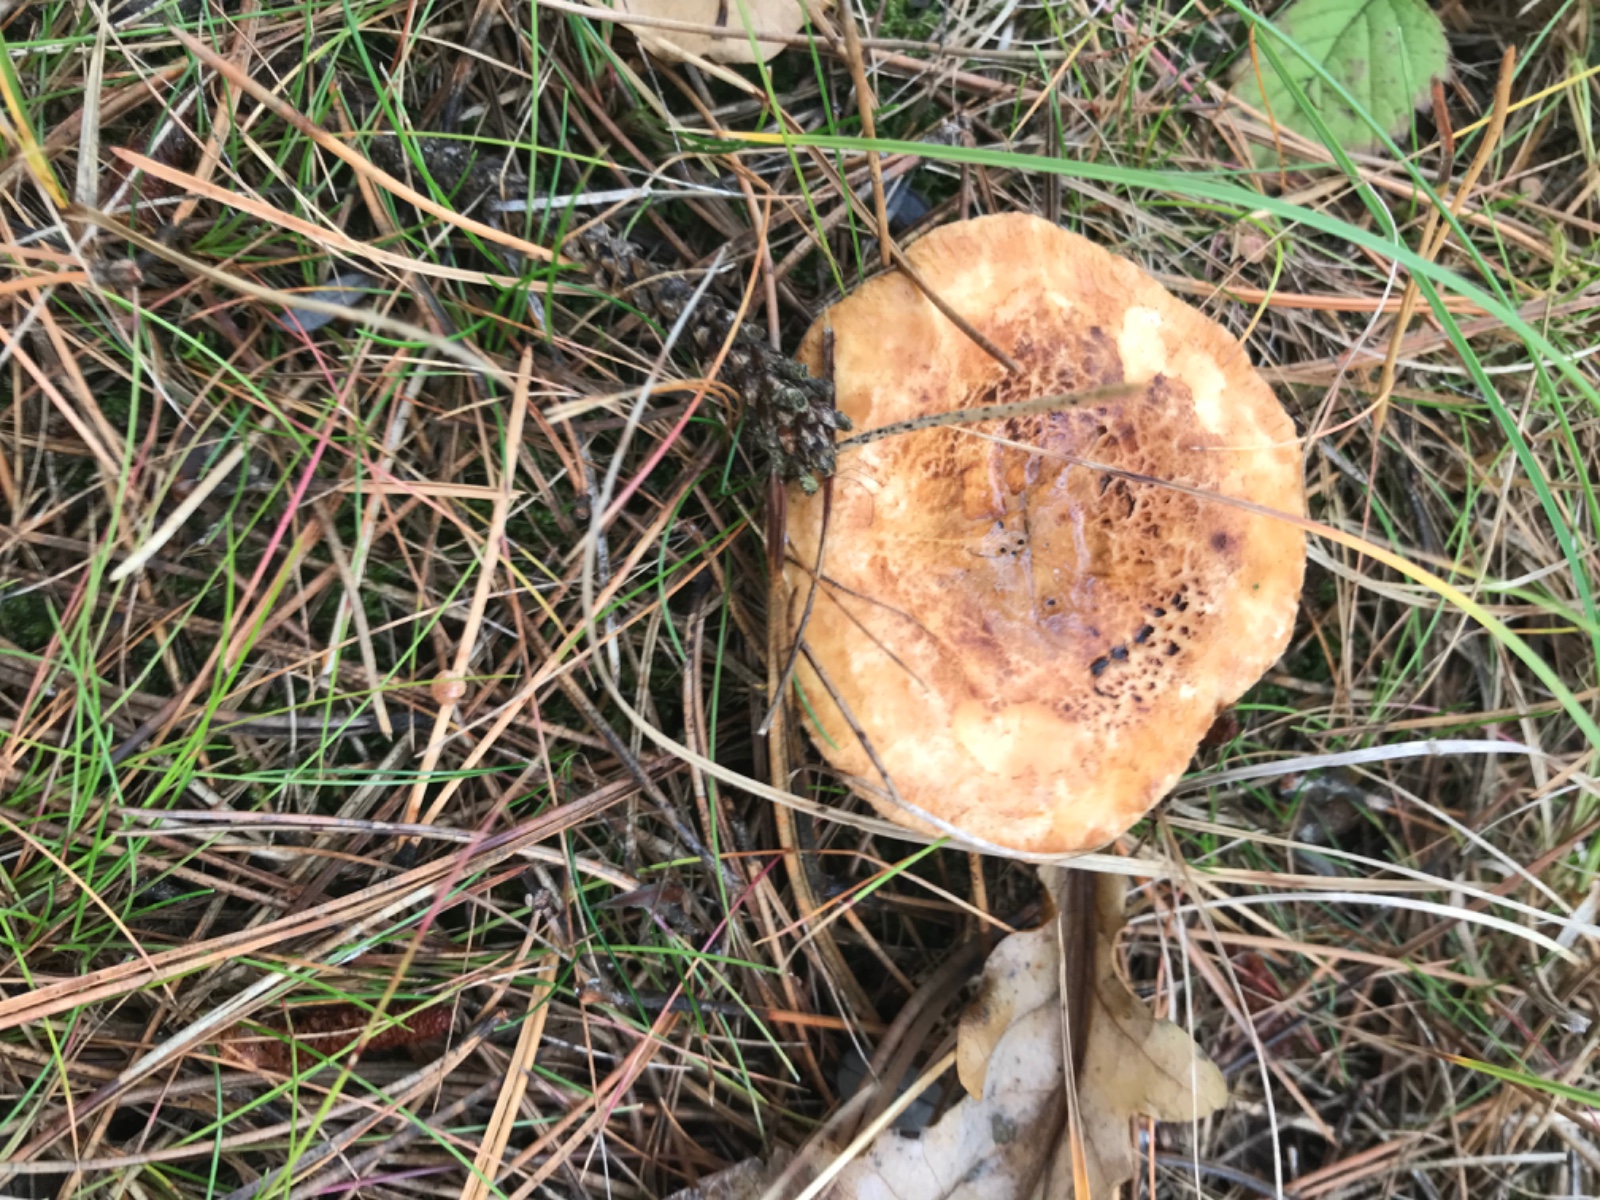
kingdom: Fungi
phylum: Basidiomycota
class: Agaricomycetes
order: Boletales
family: Paxillaceae
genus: Paxillus
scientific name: Paxillus involutus
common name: almindelig netbladhat
